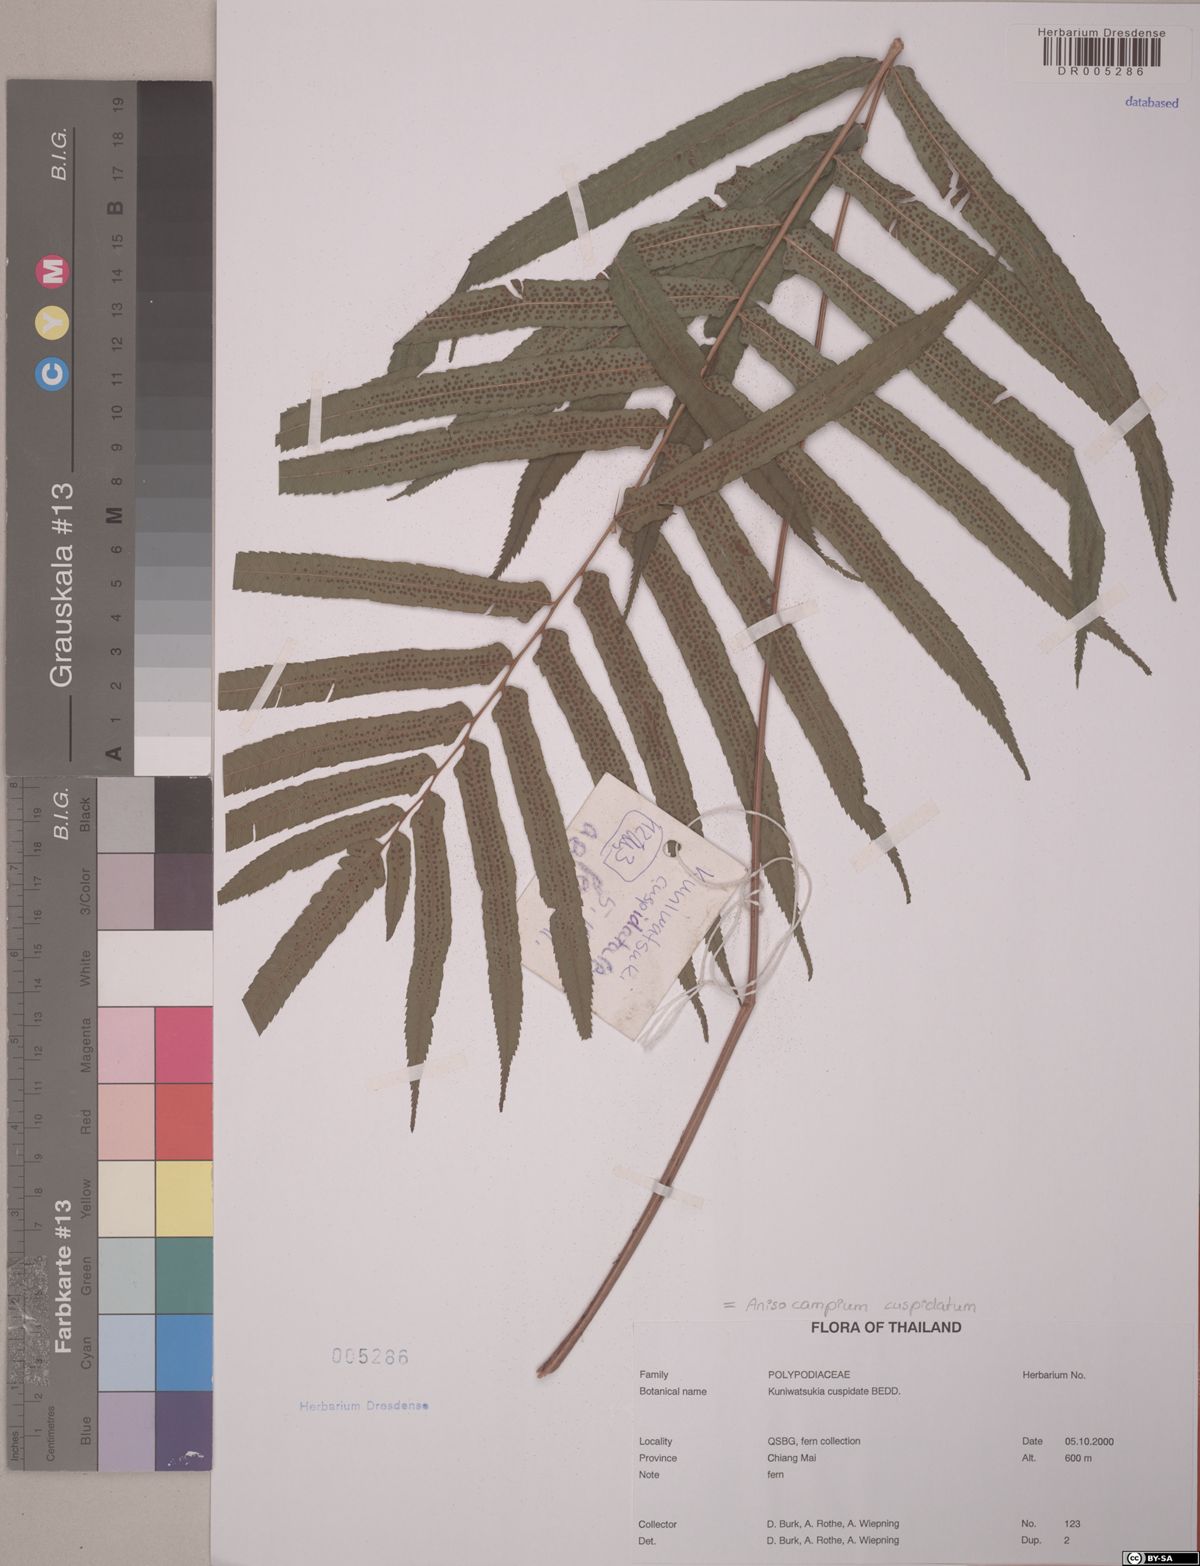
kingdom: Plantae
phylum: Tracheophyta
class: Polypodiopsida
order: Polypodiales
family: Athyriaceae
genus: Anisocampium
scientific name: Anisocampium cuspidatum
